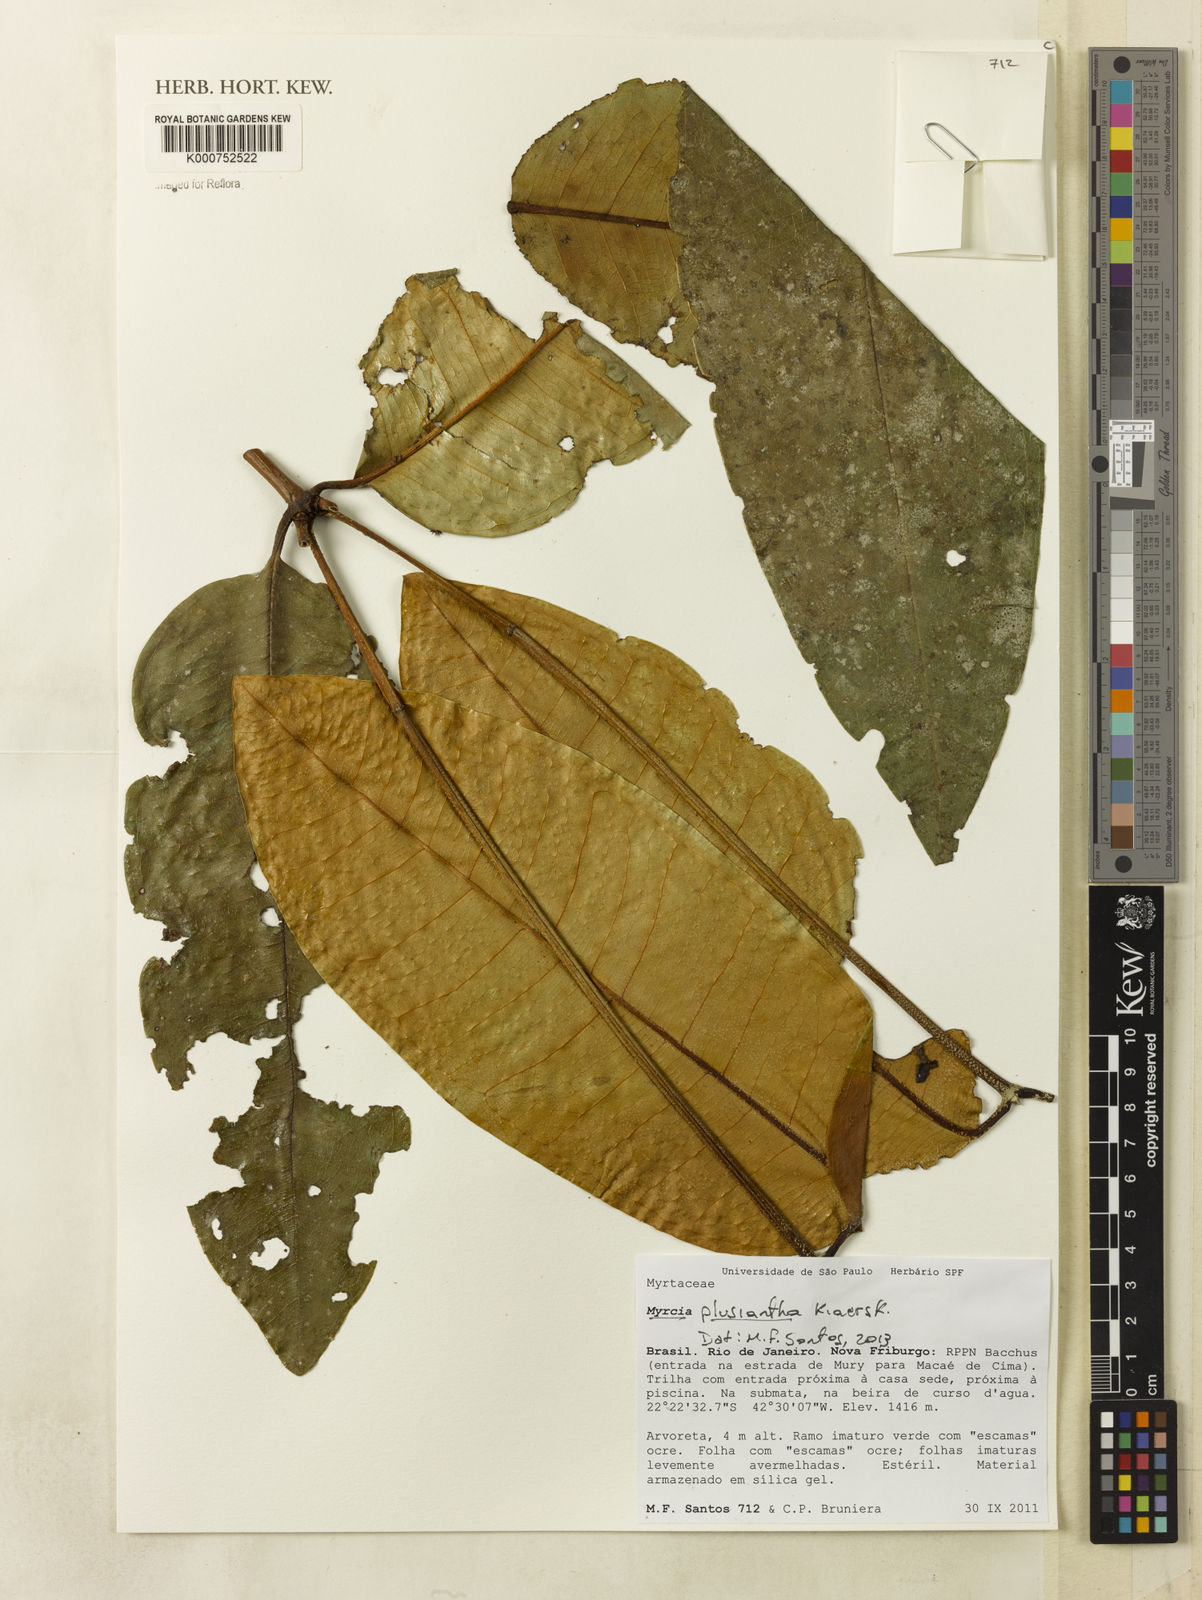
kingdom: Plantae
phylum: Tracheophyta
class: Magnoliopsida
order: Myrtales
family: Myrtaceae
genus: Myrcia
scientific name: Myrcia plusiantha
